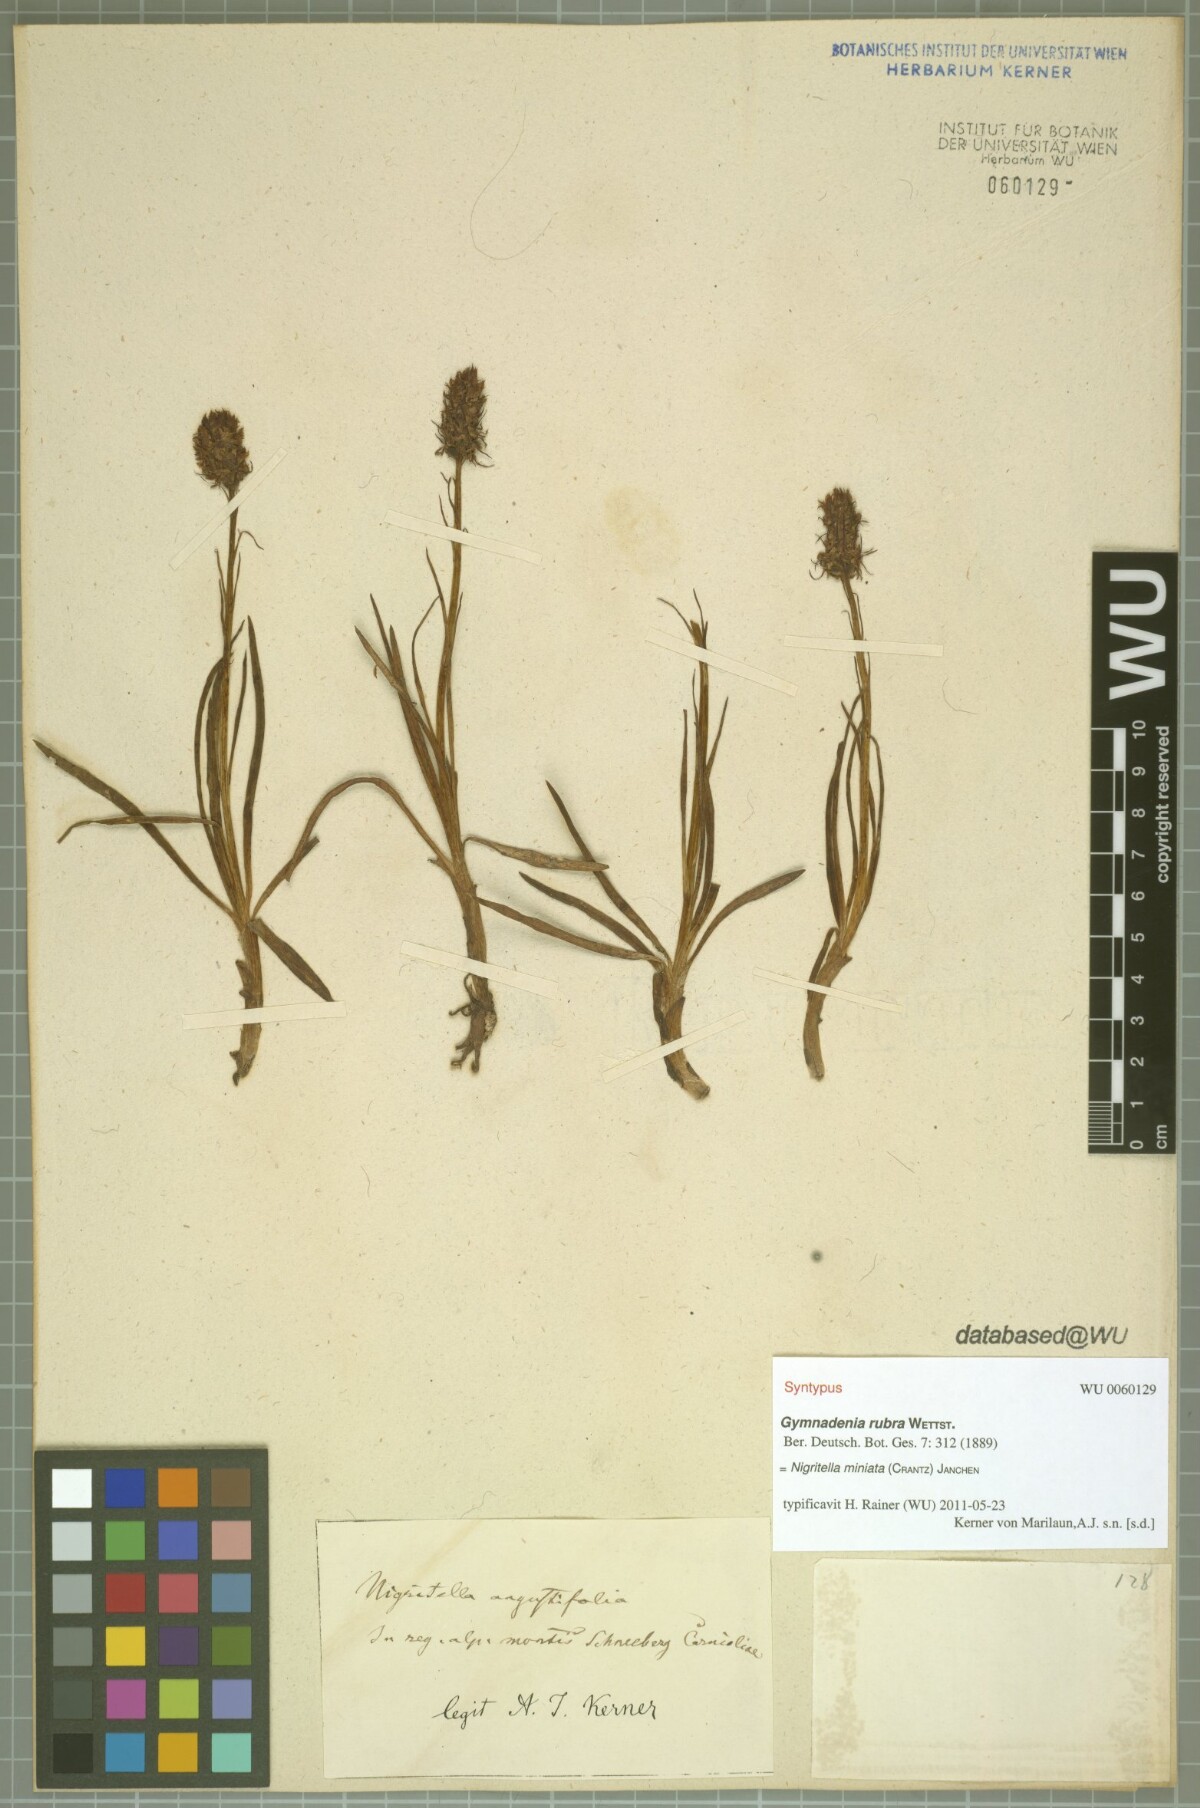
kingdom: Plantae
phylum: Tracheophyta
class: Liliopsida
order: Asparagales
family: Orchidaceae
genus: Gymnadenia
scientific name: Gymnadenia miniata
